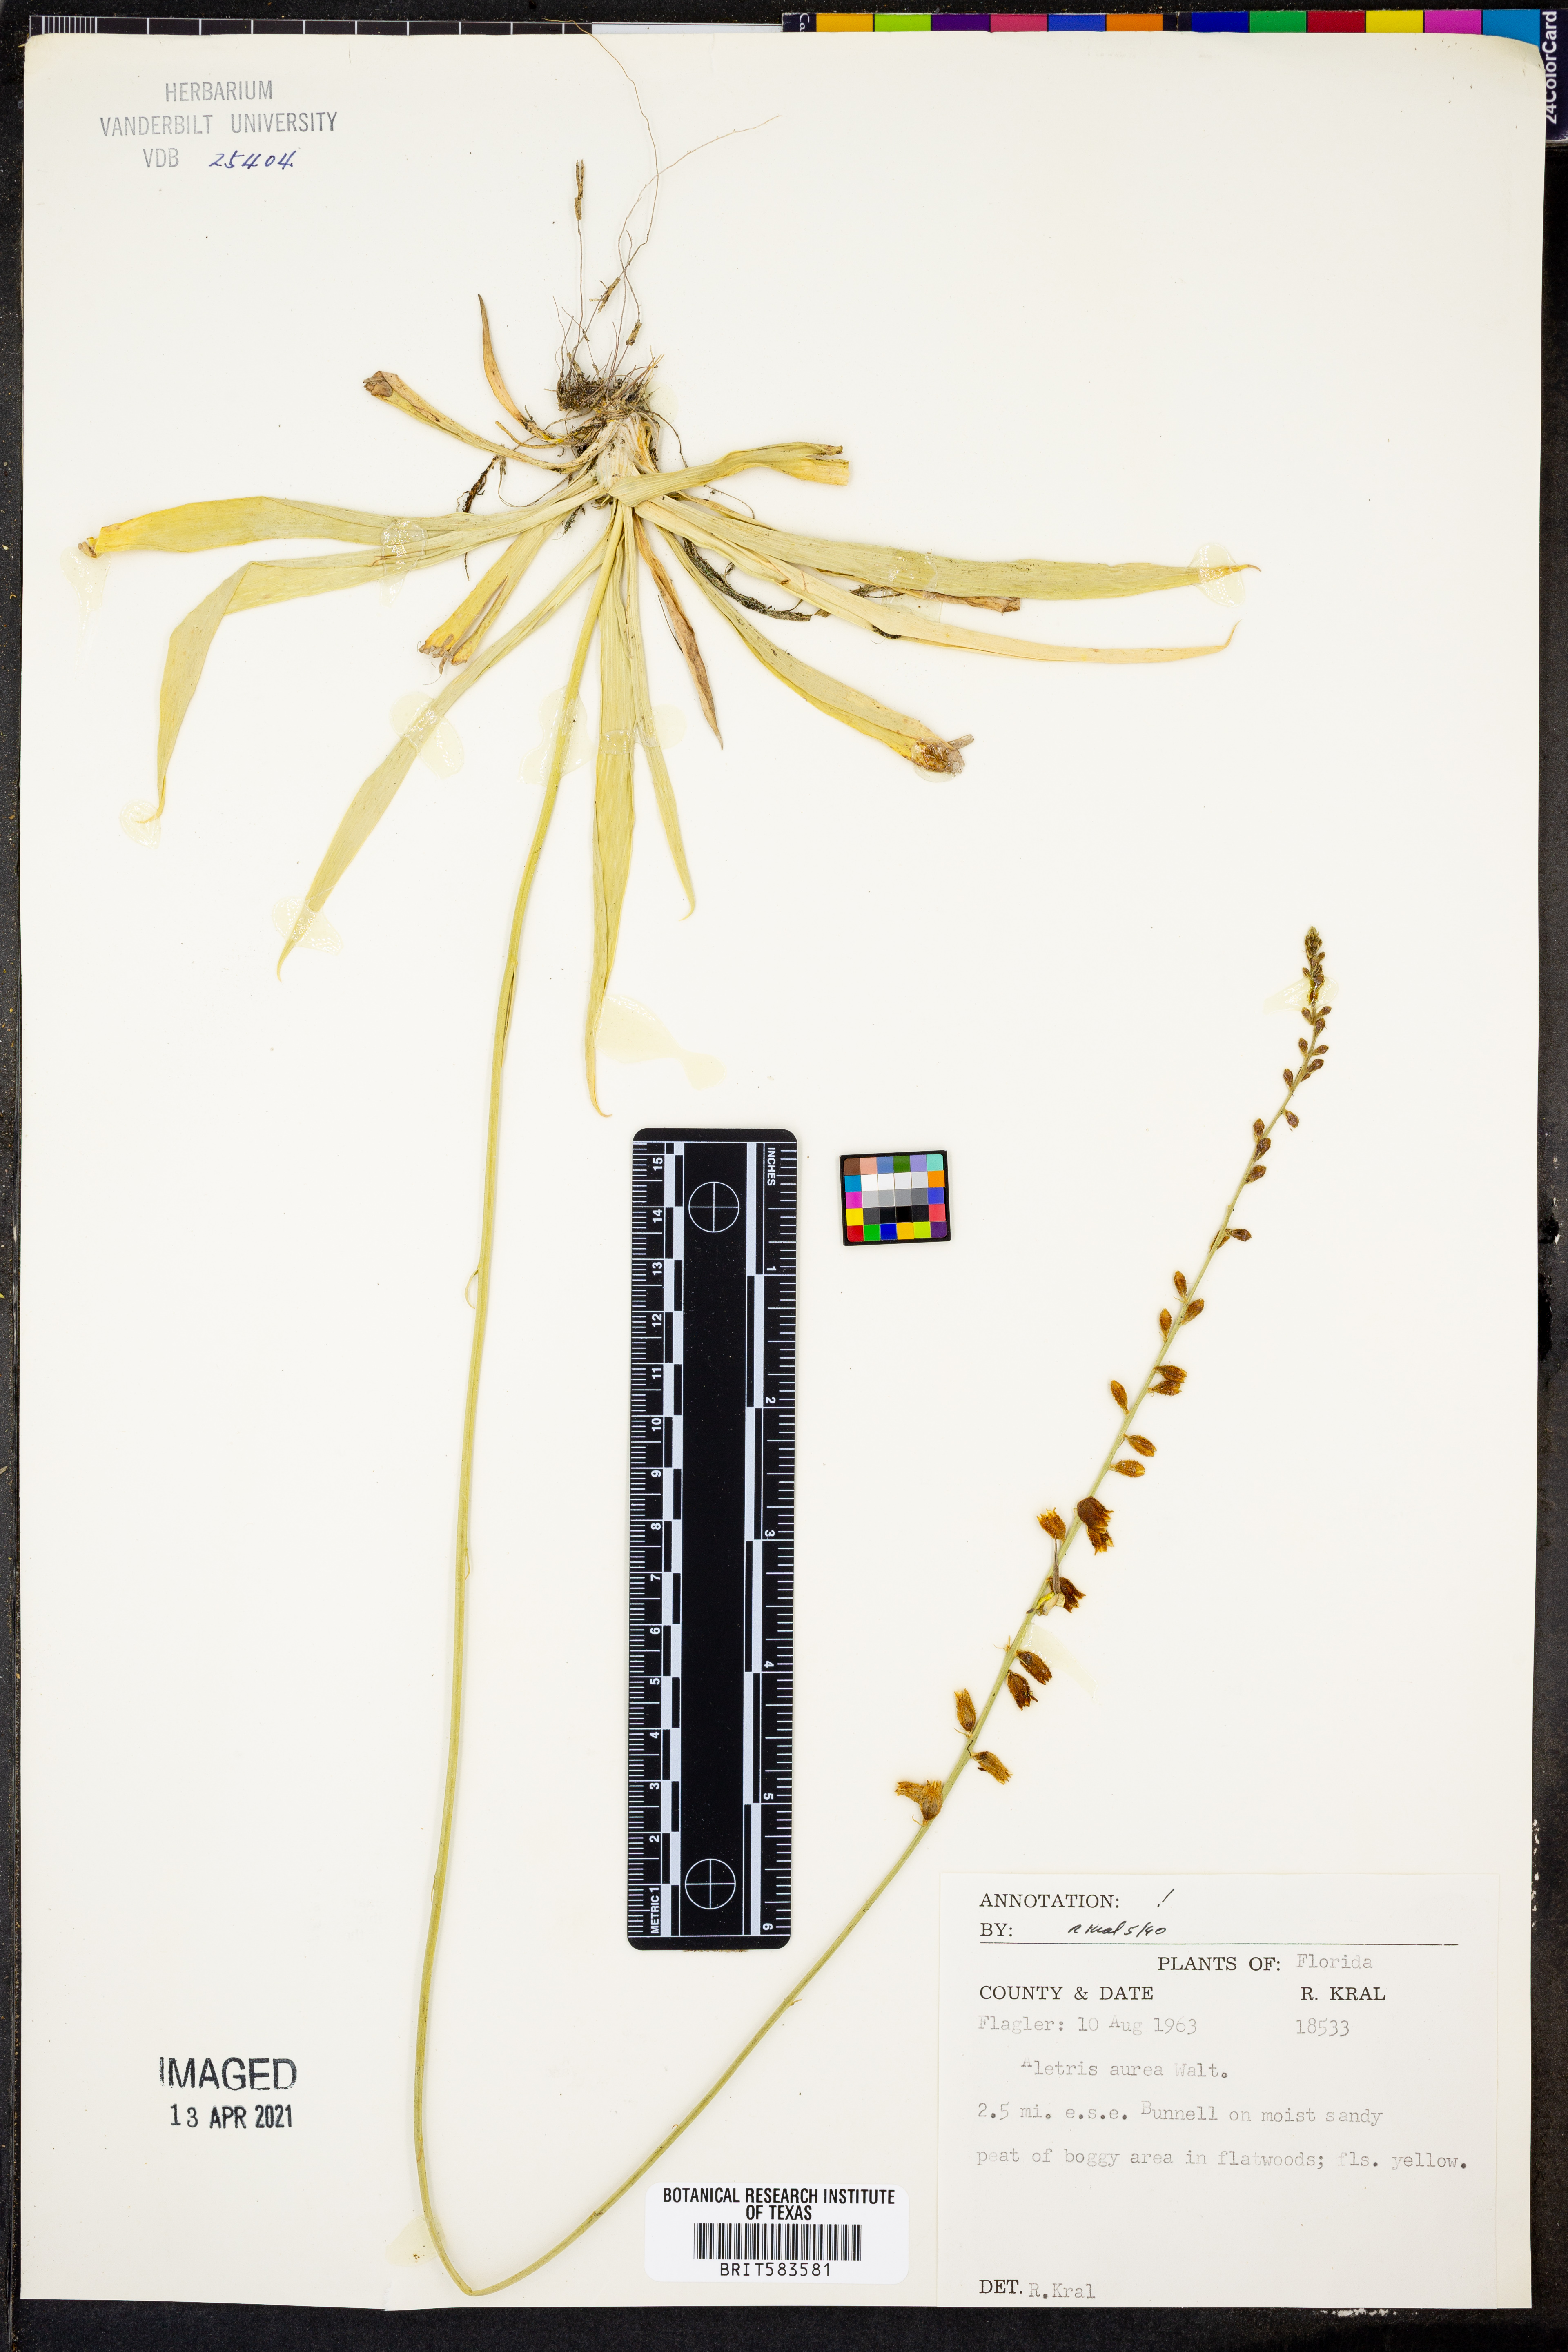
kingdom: Plantae
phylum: Tracheophyta
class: Liliopsida
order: Dioscoreales
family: Nartheciaceae
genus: Aletris
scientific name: Aletris aurea
